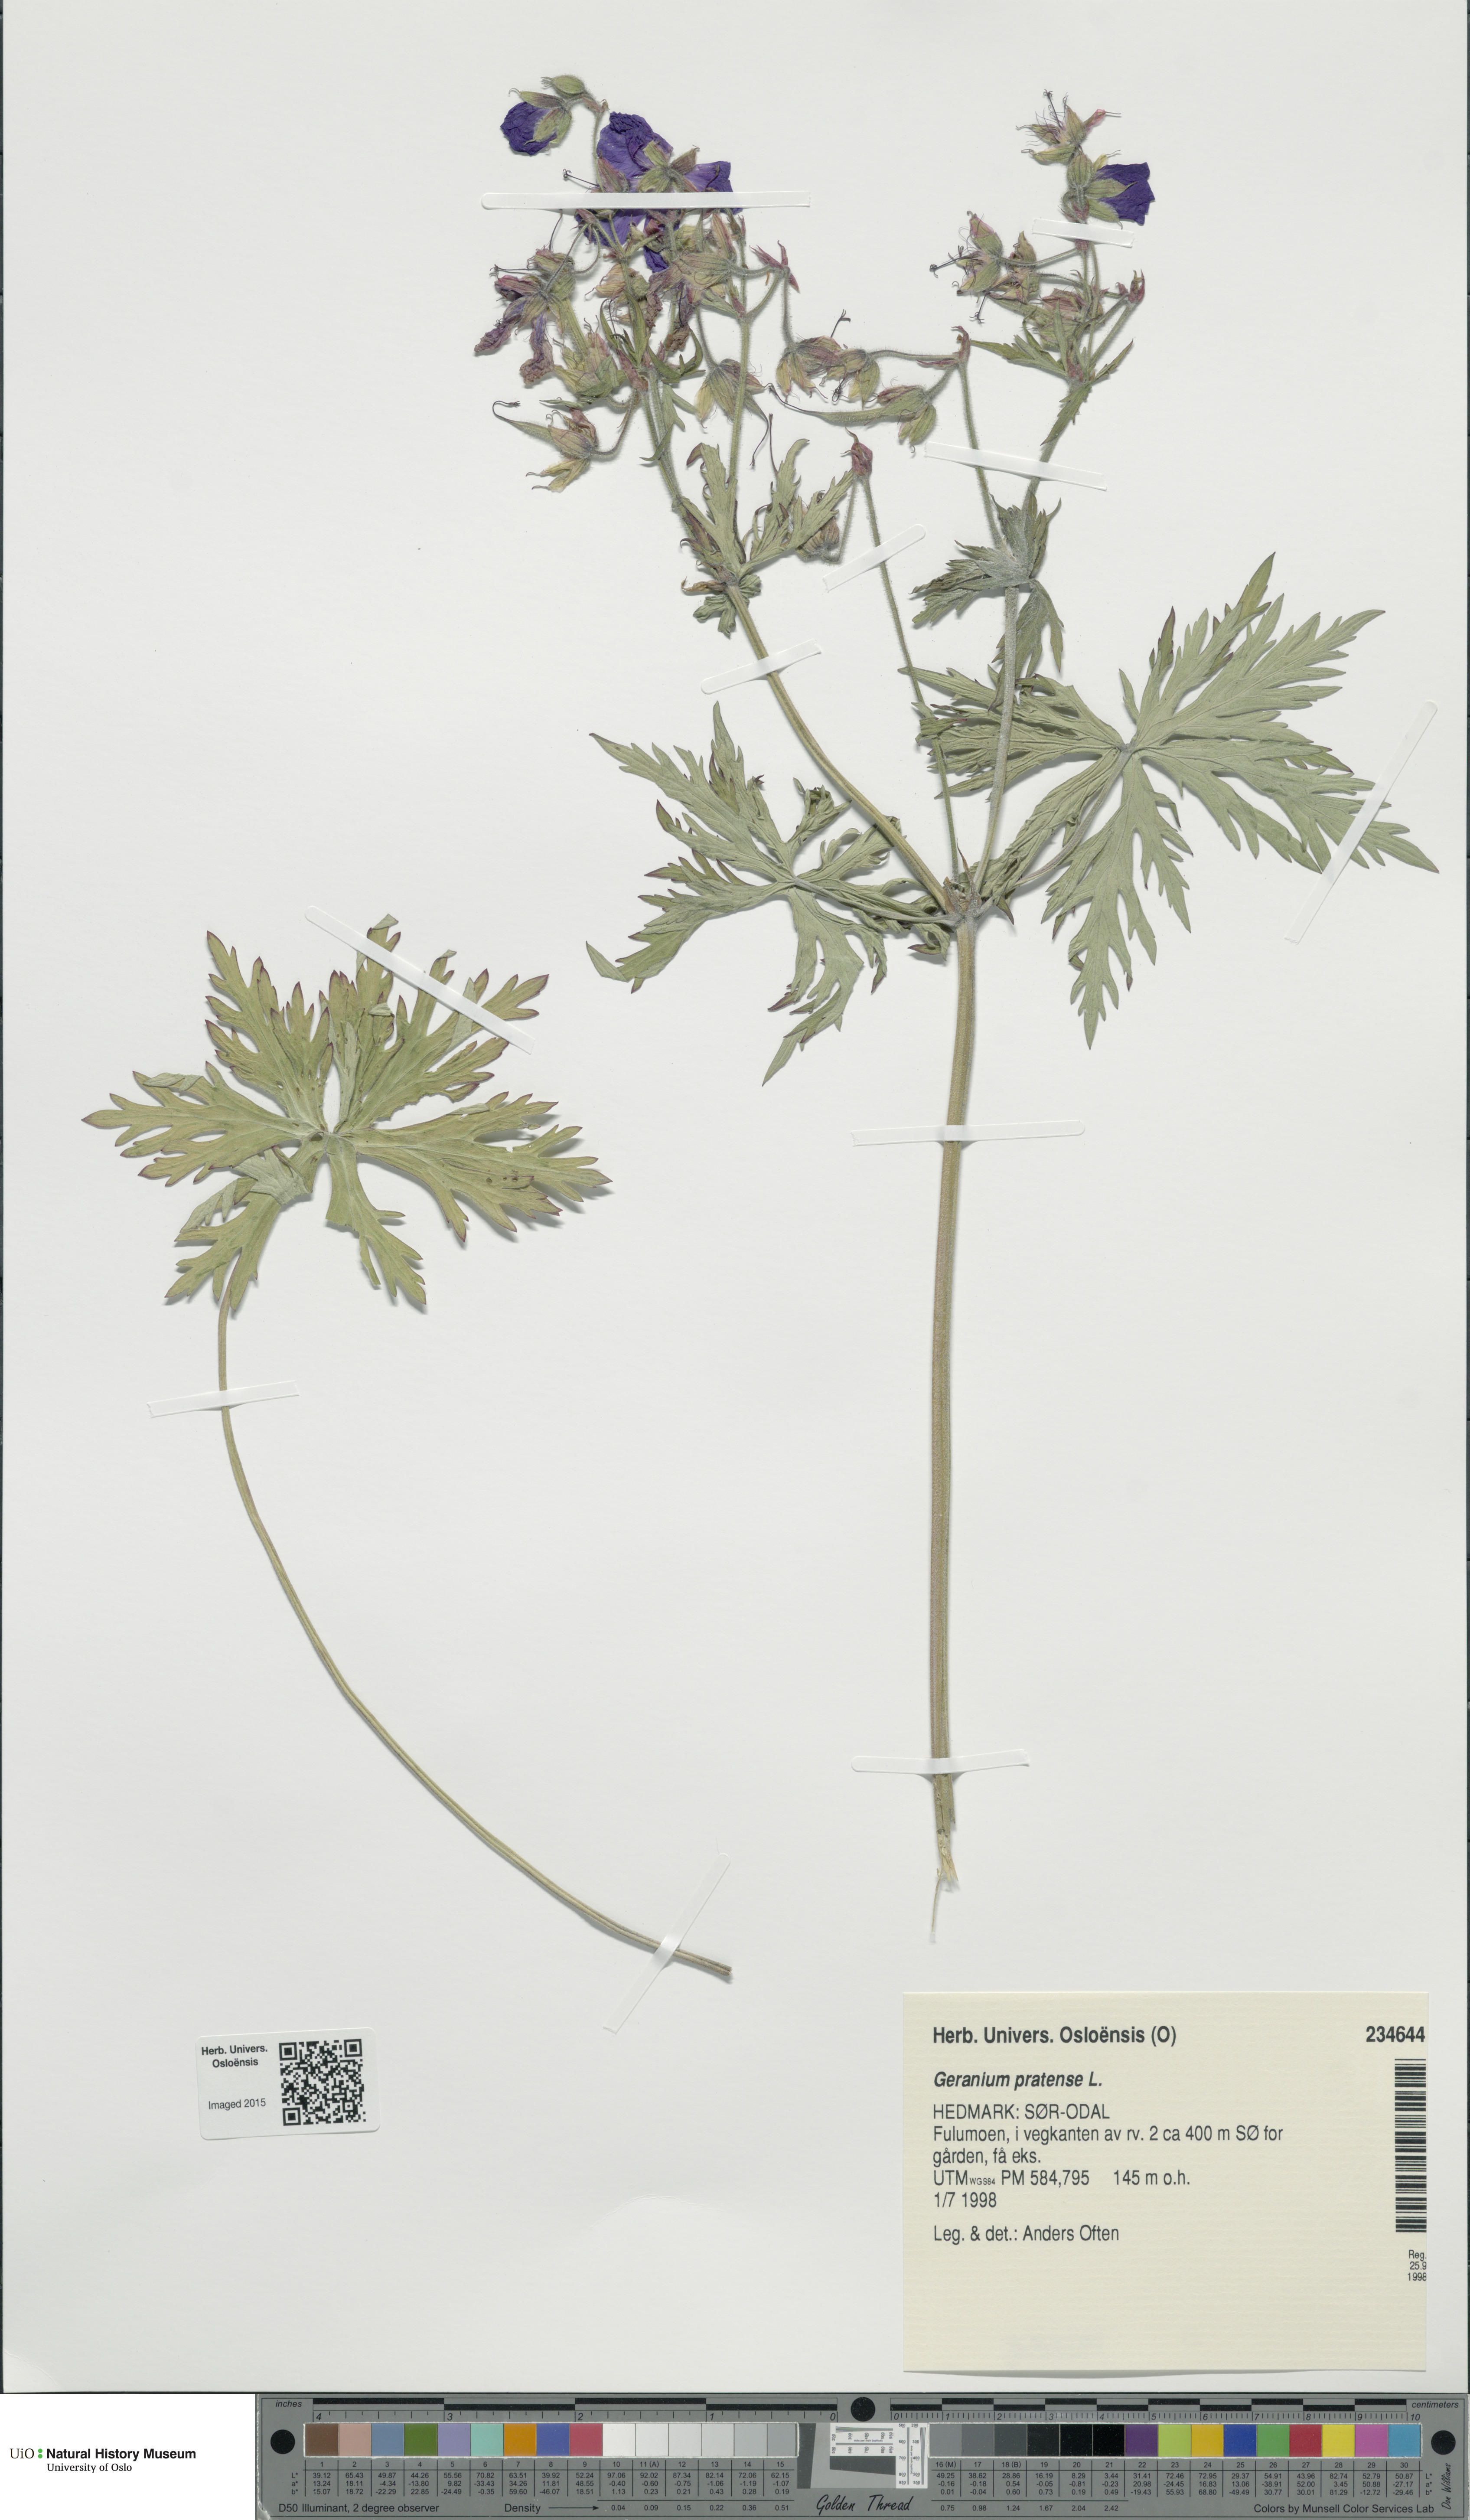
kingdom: Plantae
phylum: Tracheophyta
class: Magnoliopsida
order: Geraniales
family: Geraniaceae
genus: Geranium
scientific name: Geranium pratense
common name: Meadow crane's-bill
